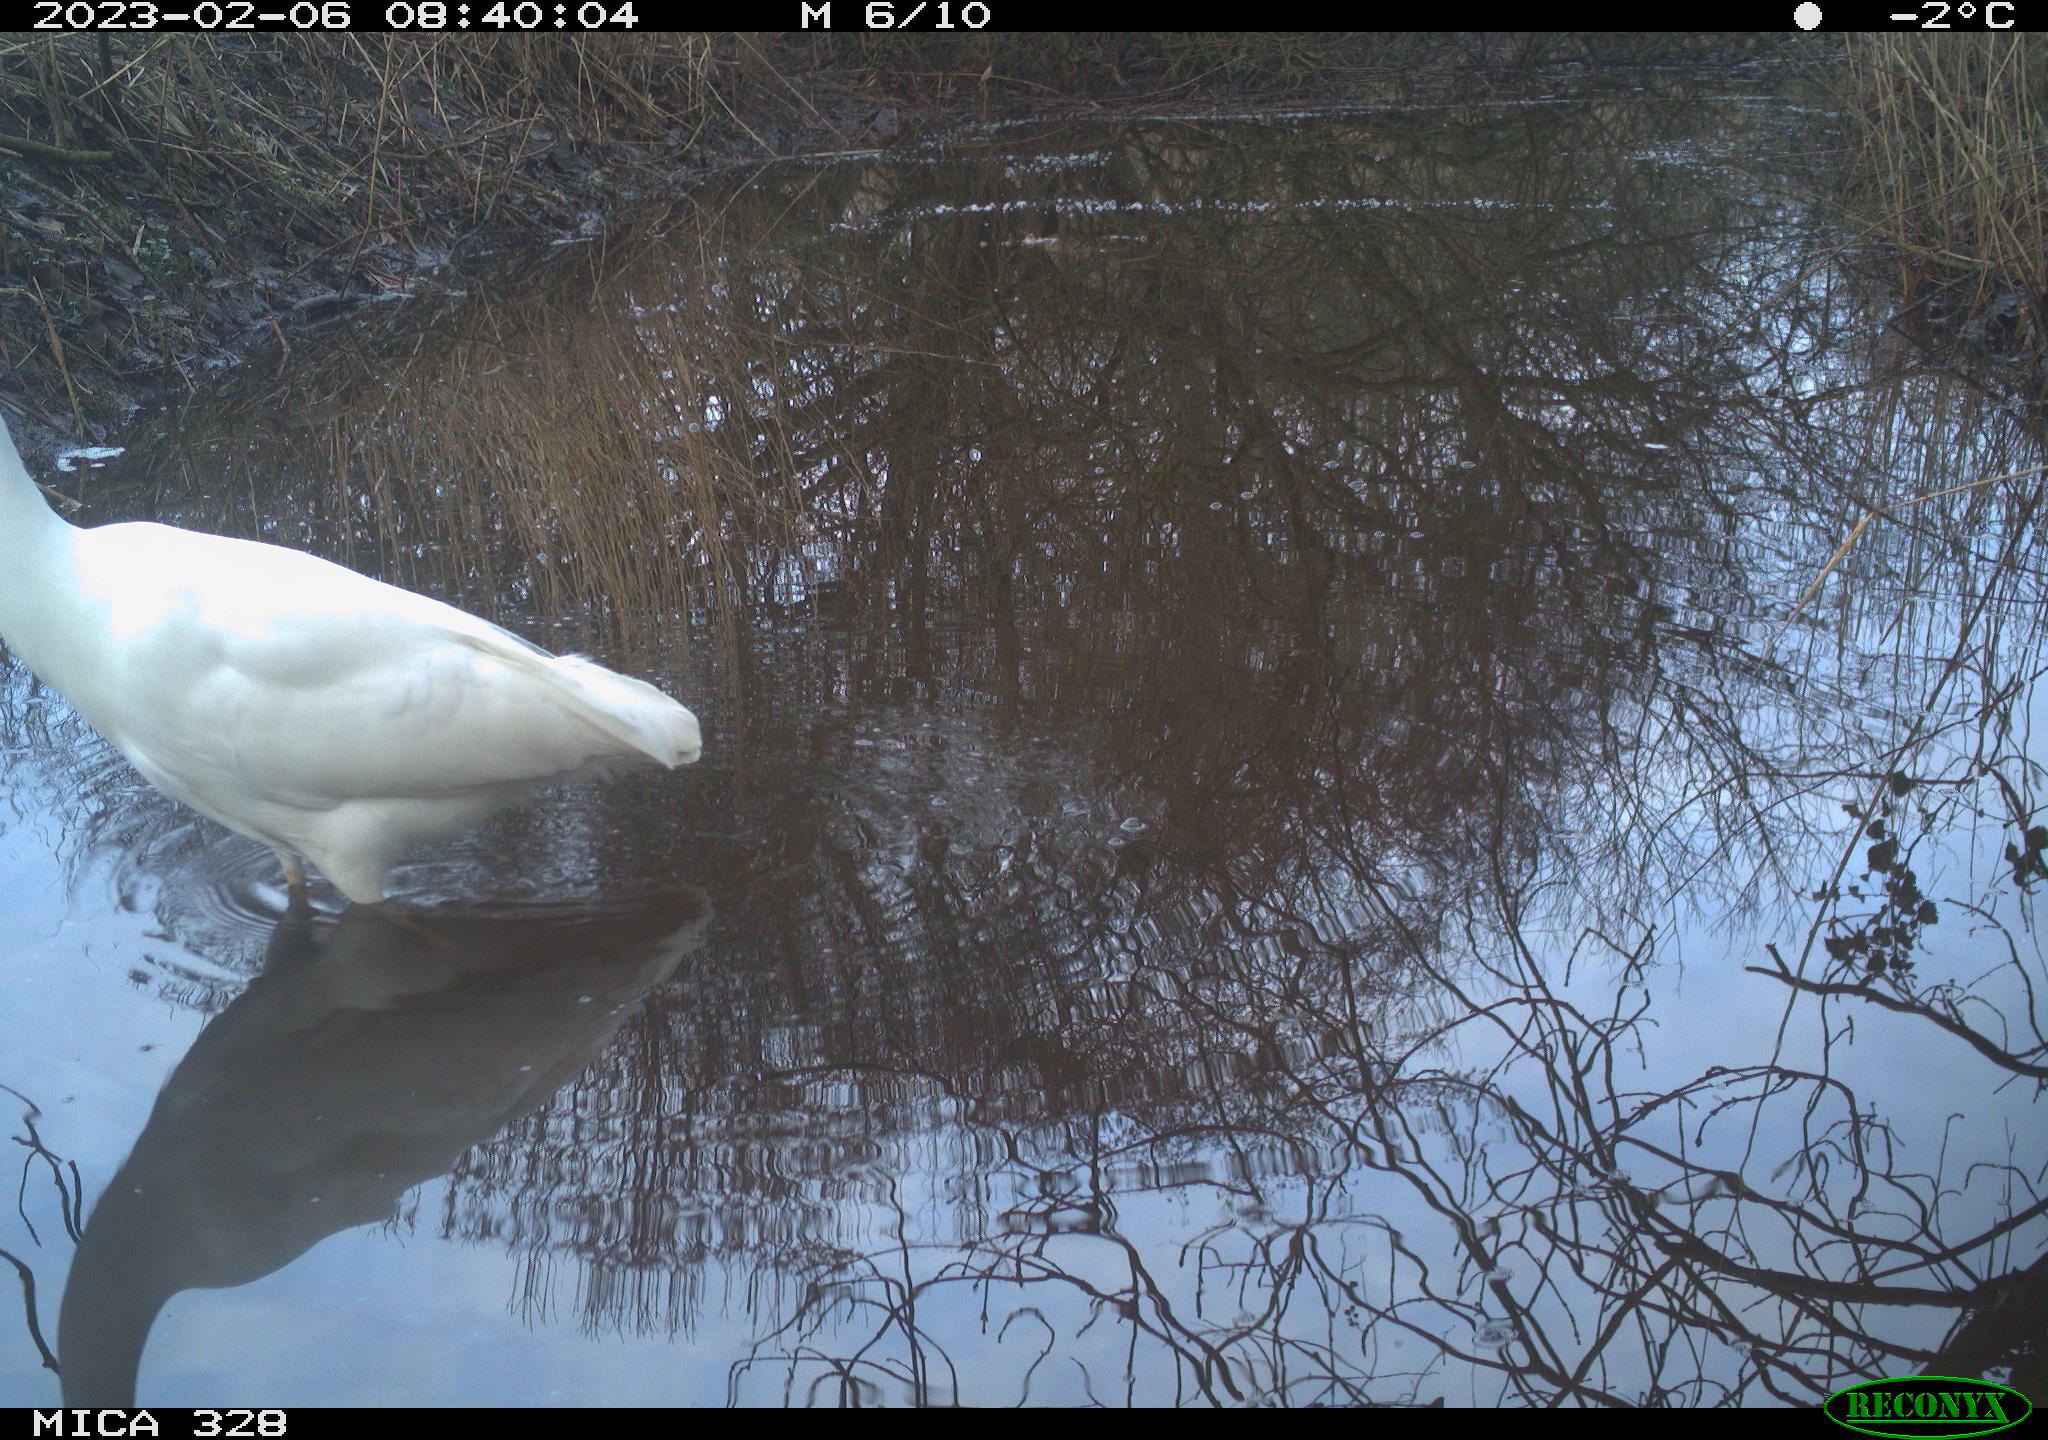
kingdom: Animalia
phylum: Chordata
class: Aves
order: Pelecaniformes
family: Ardeidae
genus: Ardea
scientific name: Ardea alba
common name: Great egret
